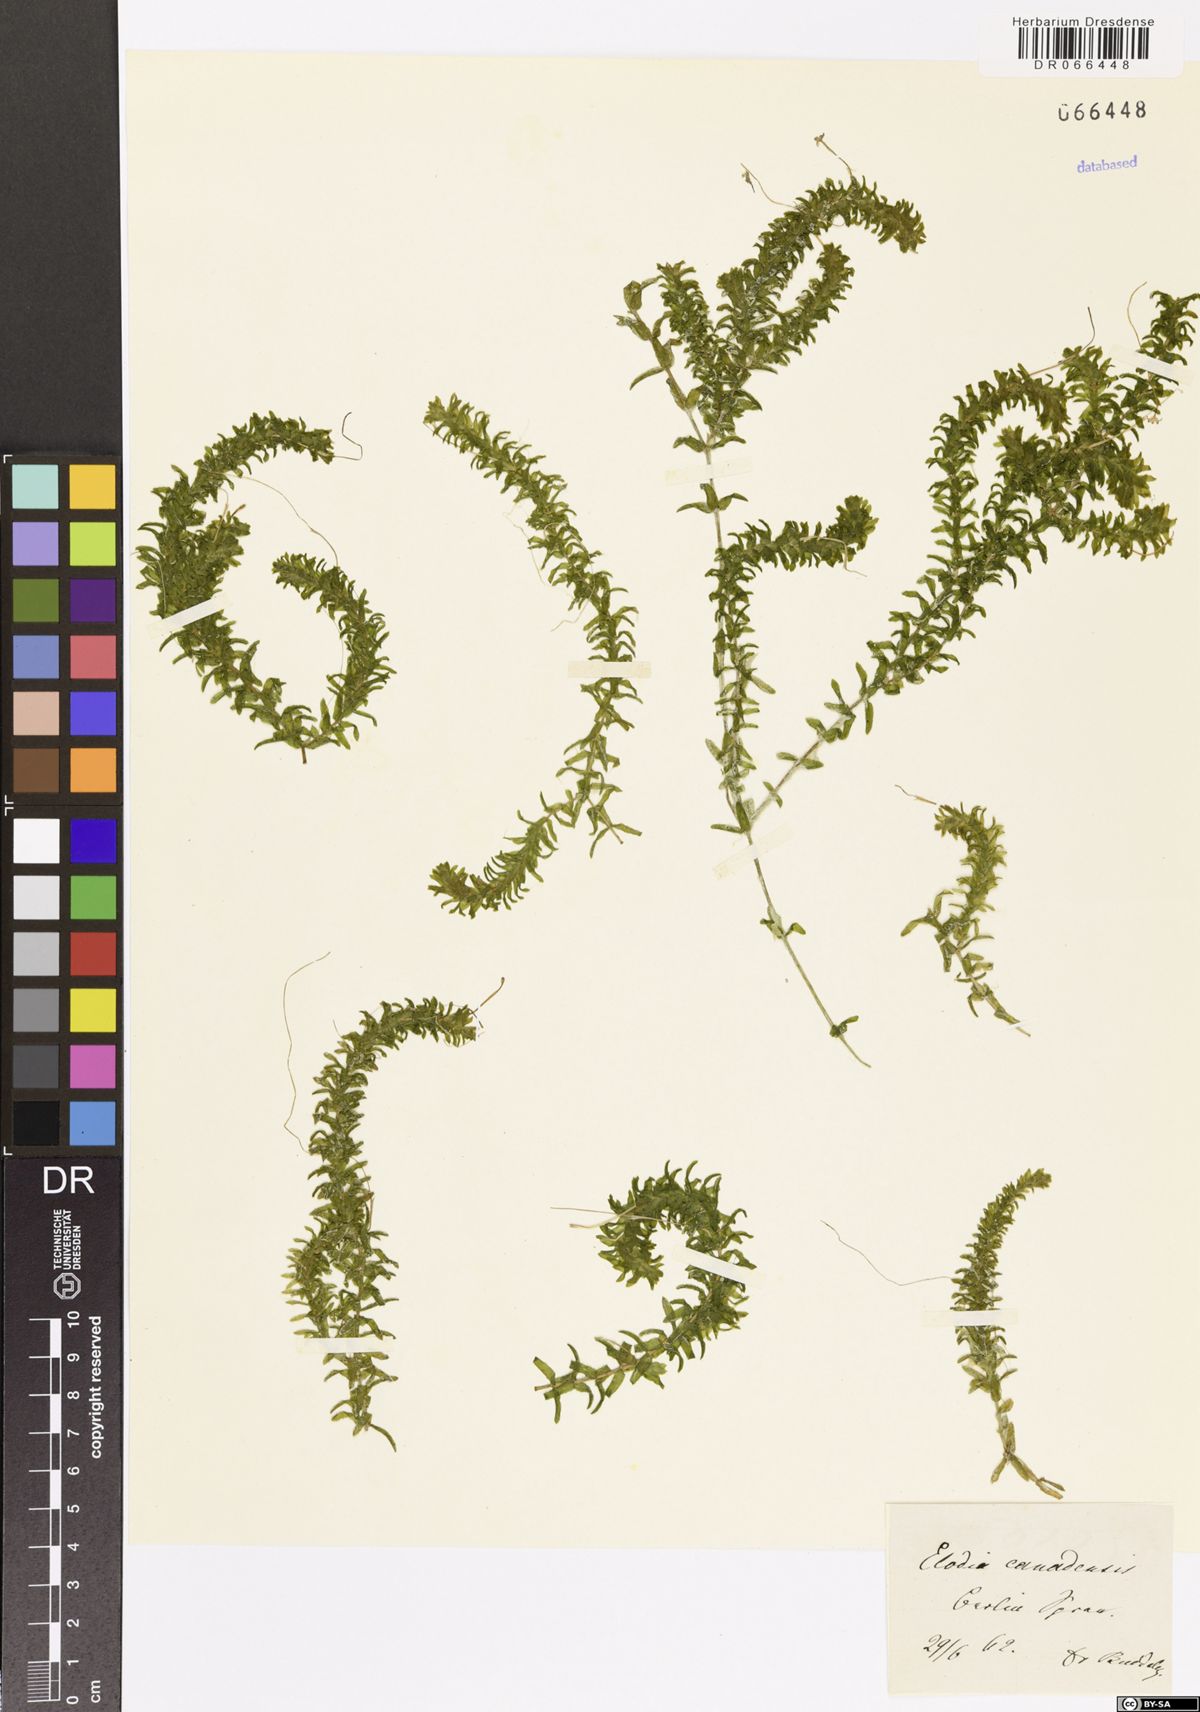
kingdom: Plantae
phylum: Tracheophyta
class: Liliopsida
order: Alismatales
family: Hydrocharitaceae
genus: Elodea
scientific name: Elodea canadensis
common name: Canadian waterweed
